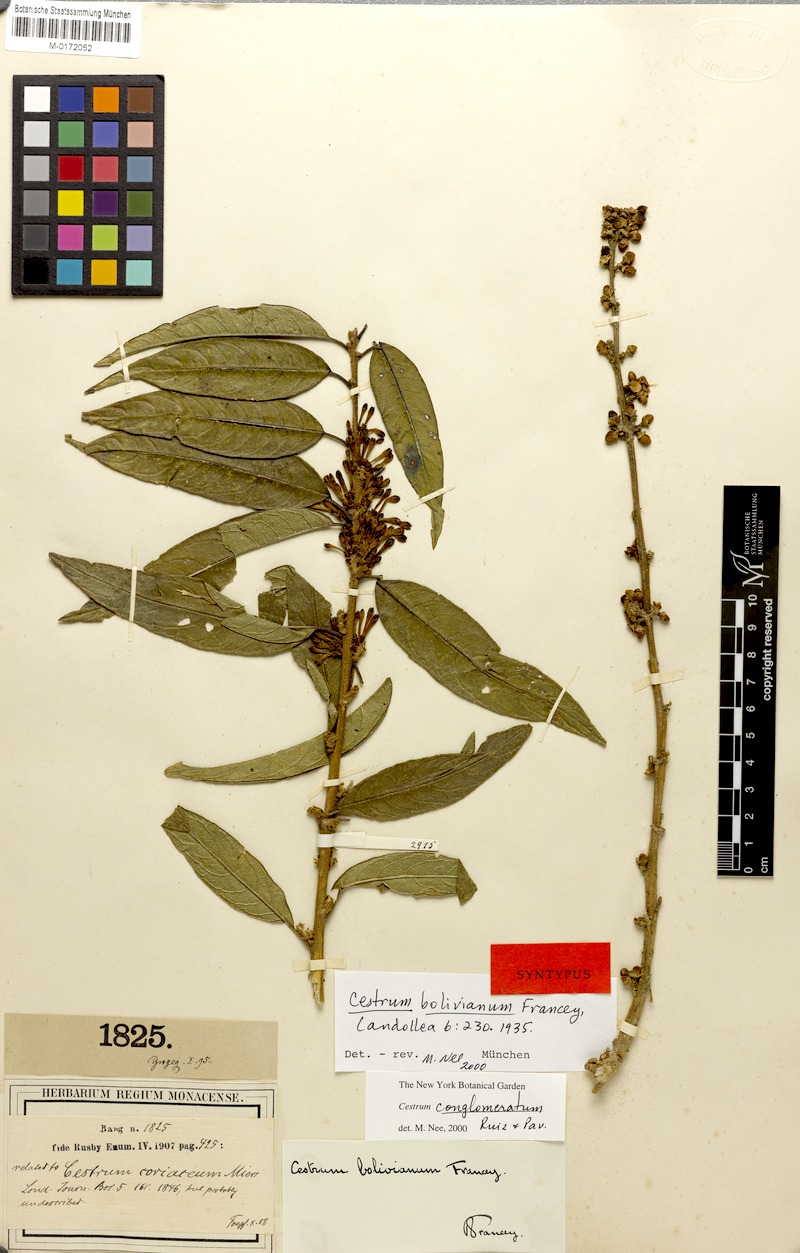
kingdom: Plantae
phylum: Tracheophyta
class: Magnoliopsida
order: Solanales
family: Solanaceae
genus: Cestrum
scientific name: Cestrum conglomeratum
